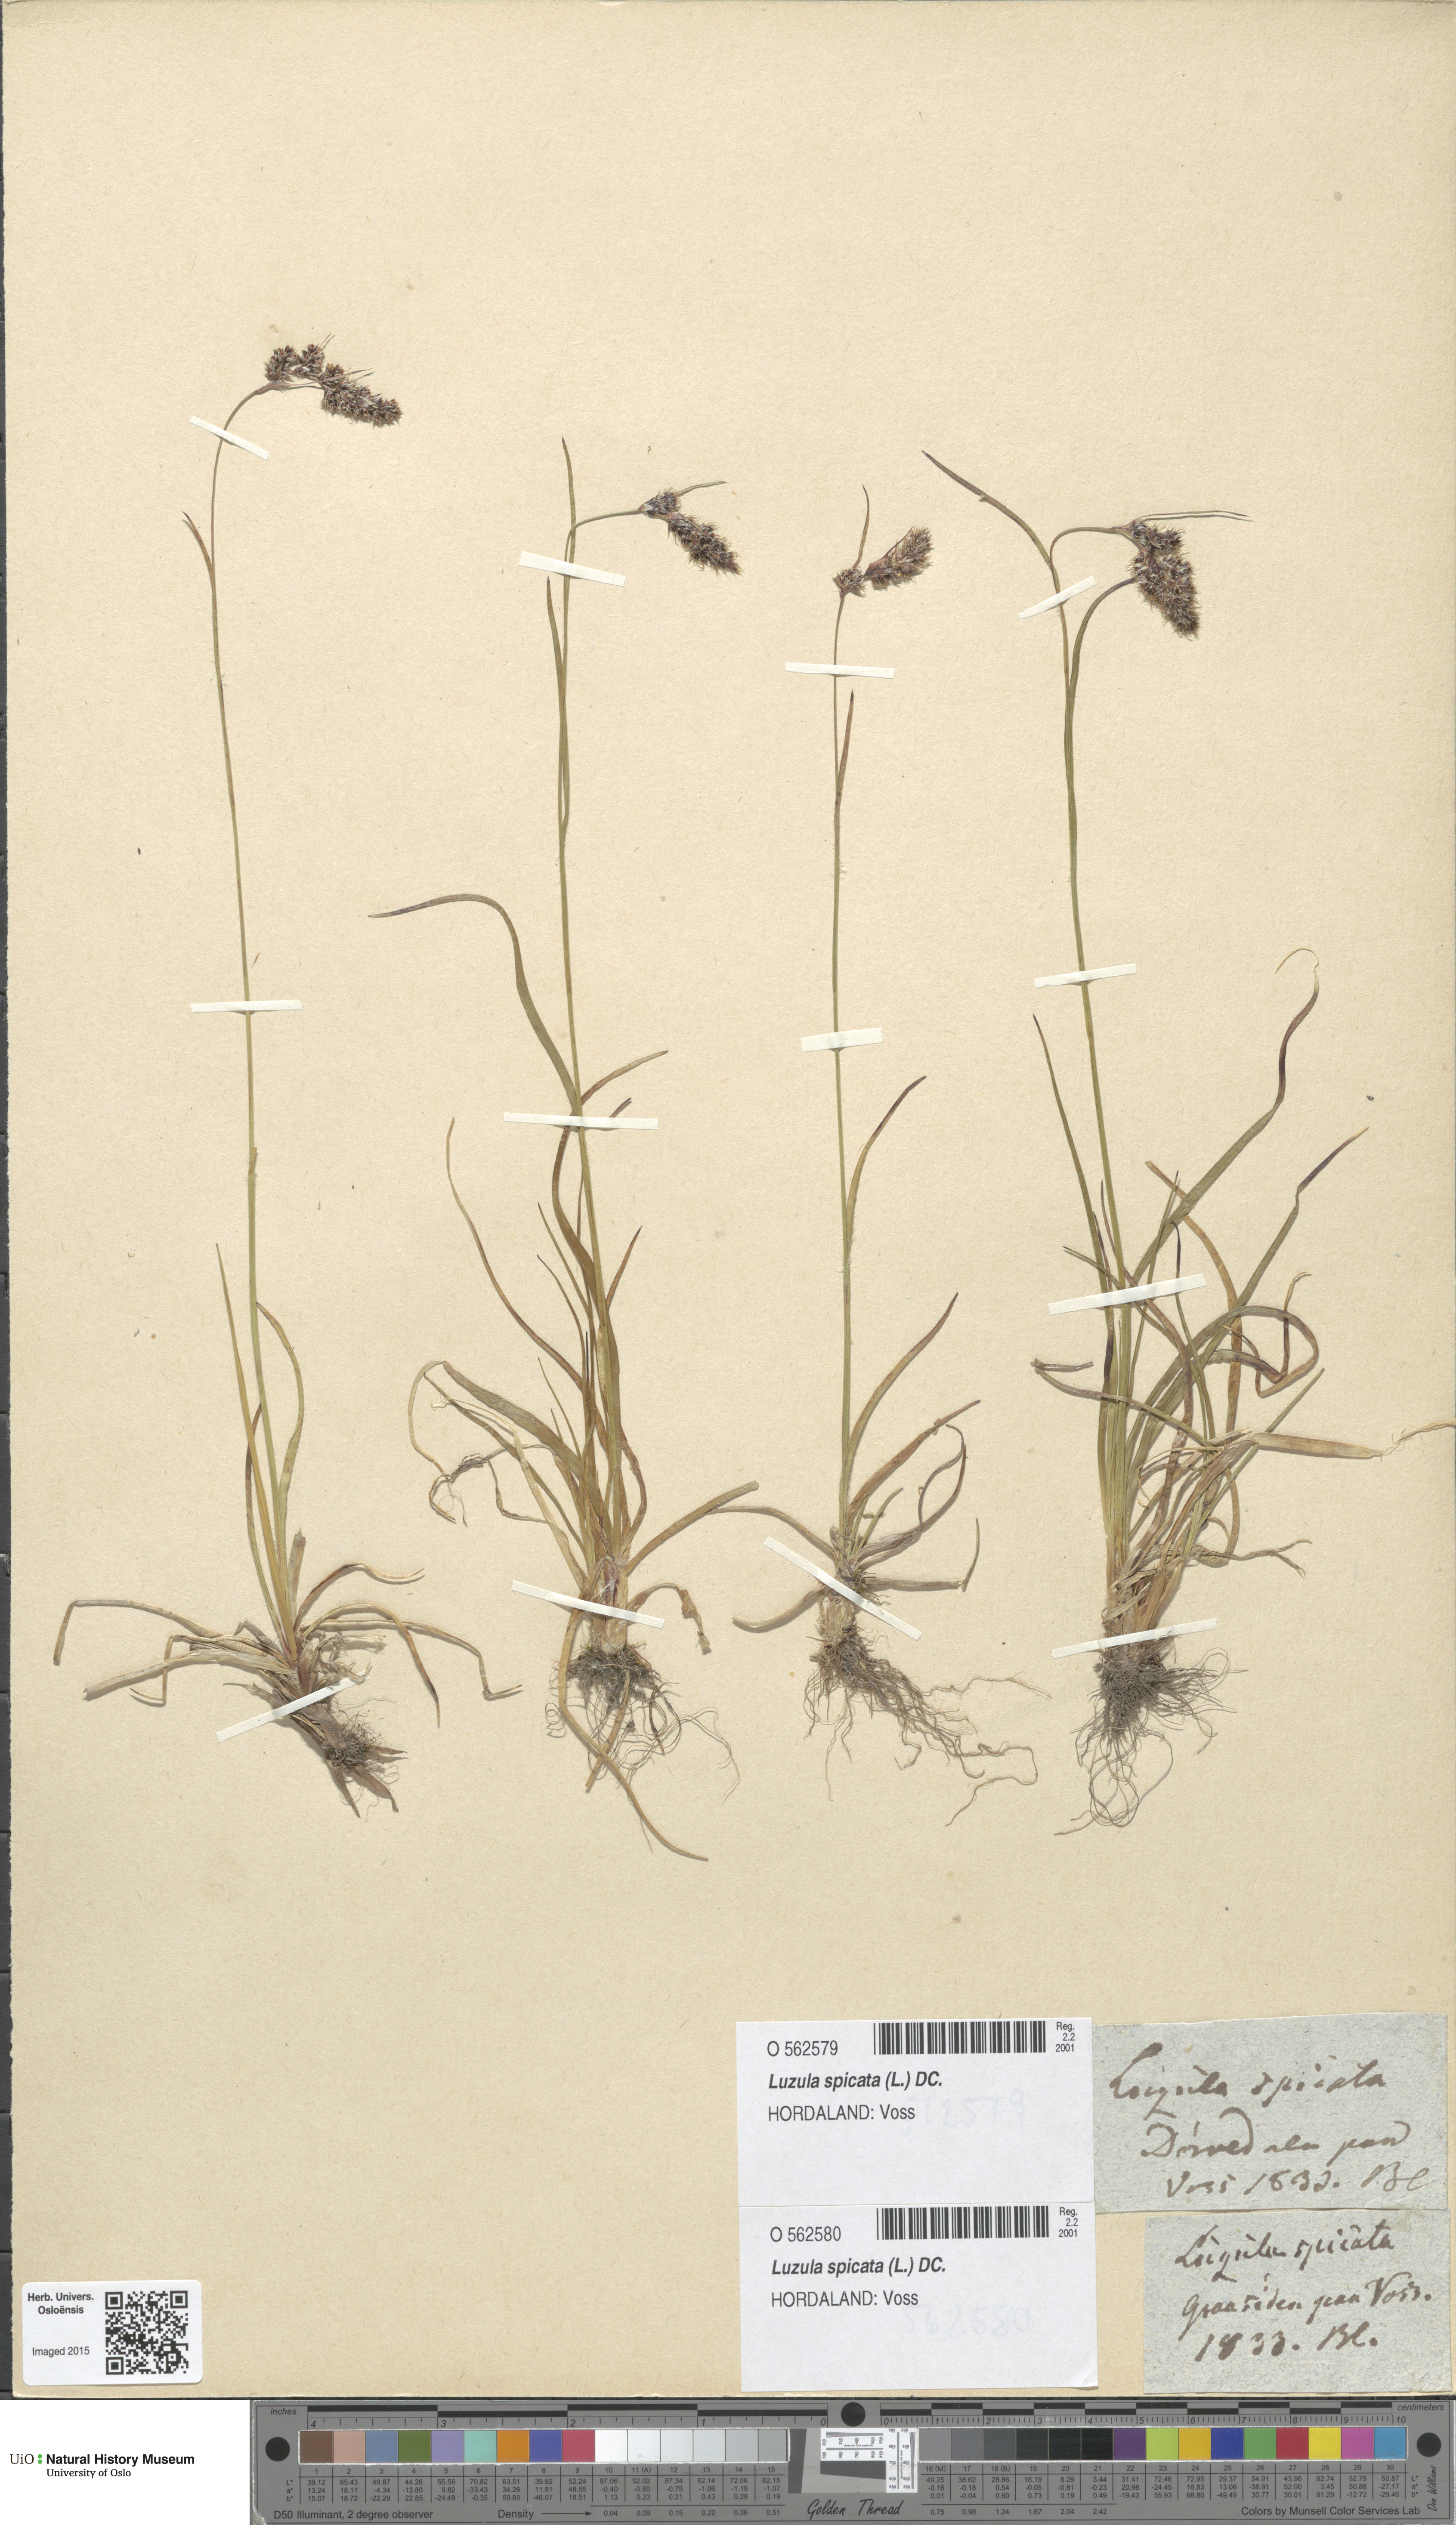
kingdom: Plantae
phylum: Tracheophyta
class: Liliopsida
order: Poales
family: Juncaceae
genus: Luzula
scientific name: Luzula spicata
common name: Spiked wood-rush
